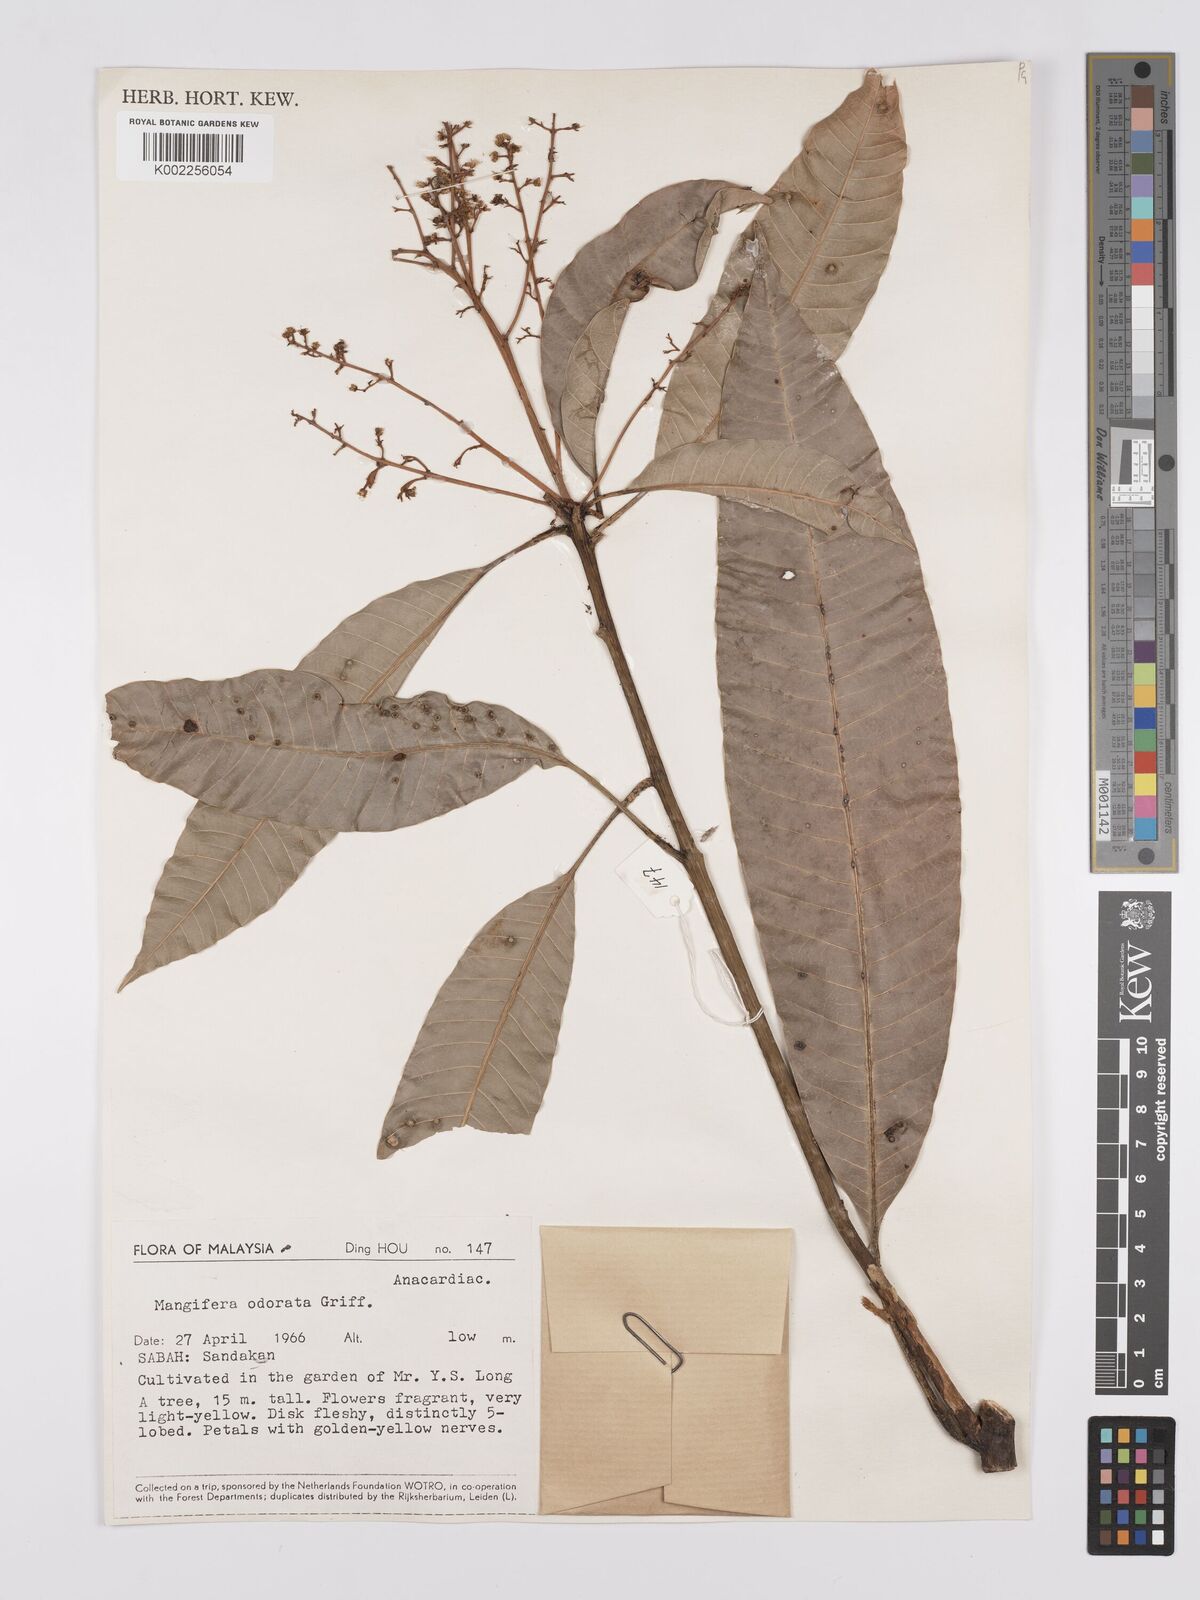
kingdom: Plantae
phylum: Tracheophyta
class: Magnoliopsida
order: Sapindales
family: Anacardiaceae
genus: Mangifera
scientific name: Mangifera odorata
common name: Saipan mango
